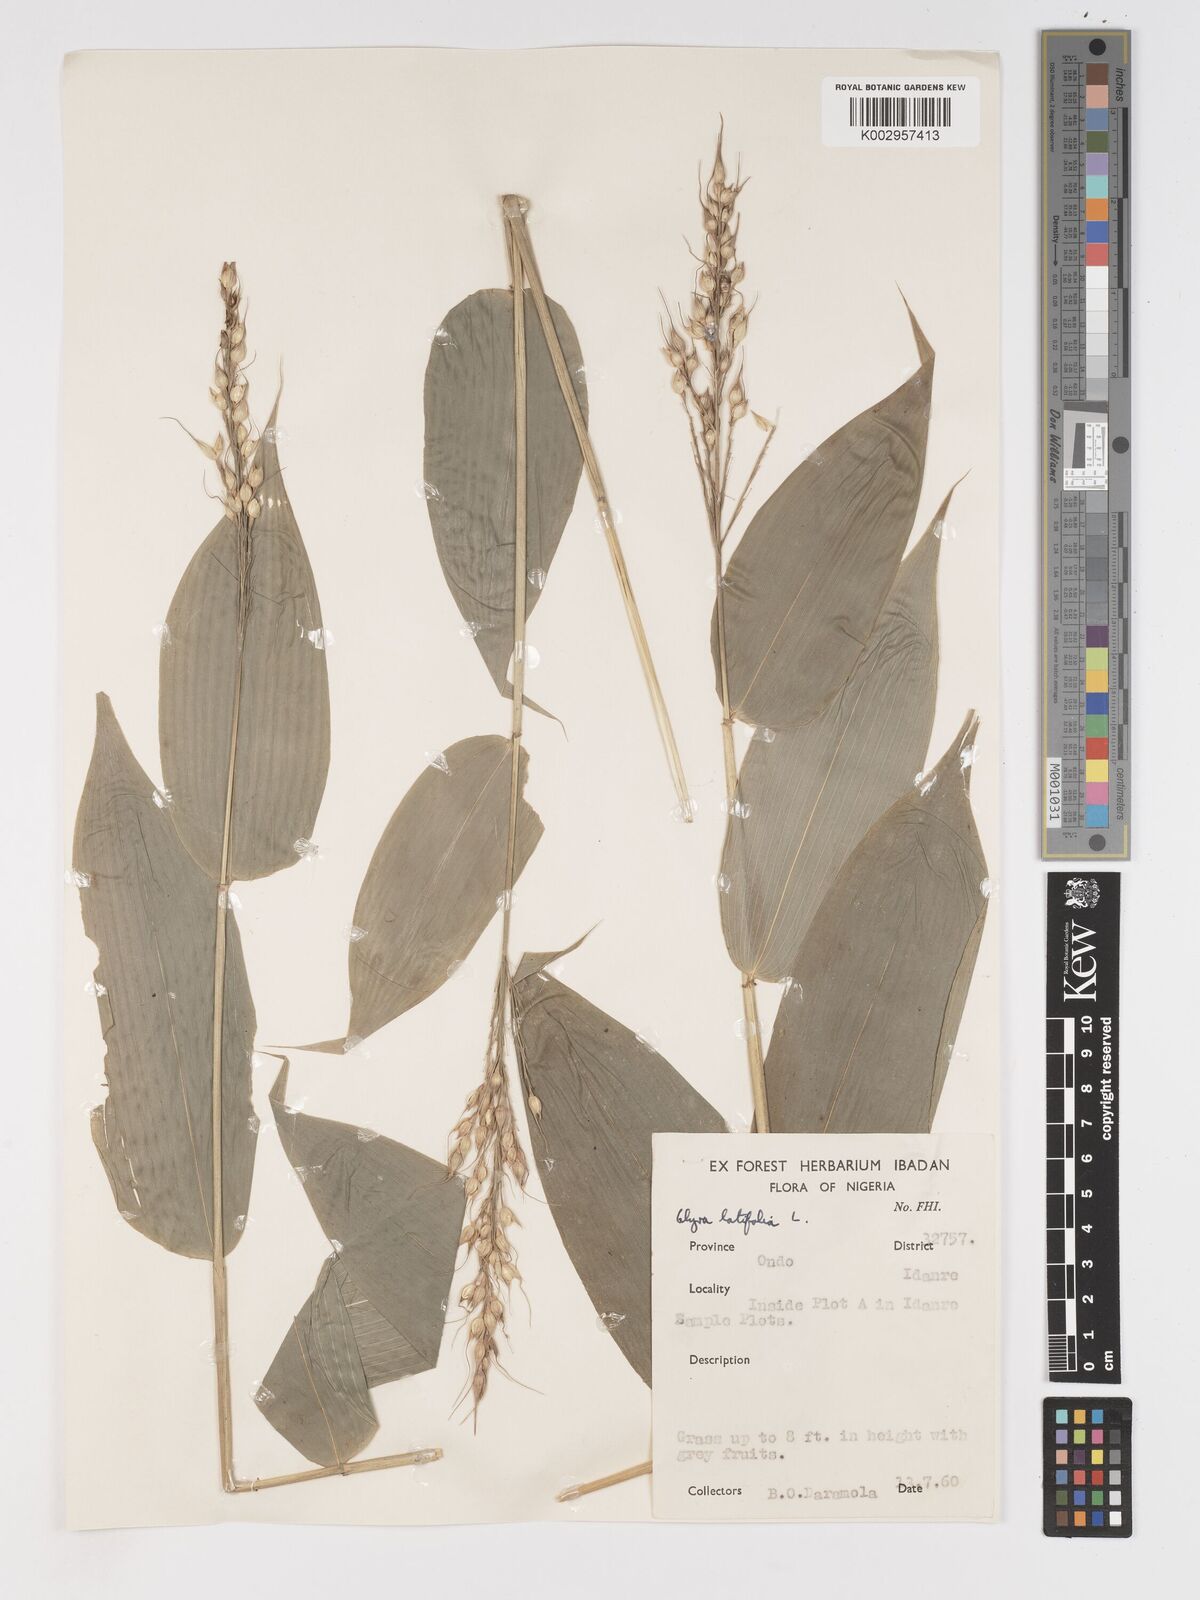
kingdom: Plantae
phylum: Tracheophyta
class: Liliopsida
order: Poales
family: Poaceae
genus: Olyra
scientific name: Olyra latifolia
